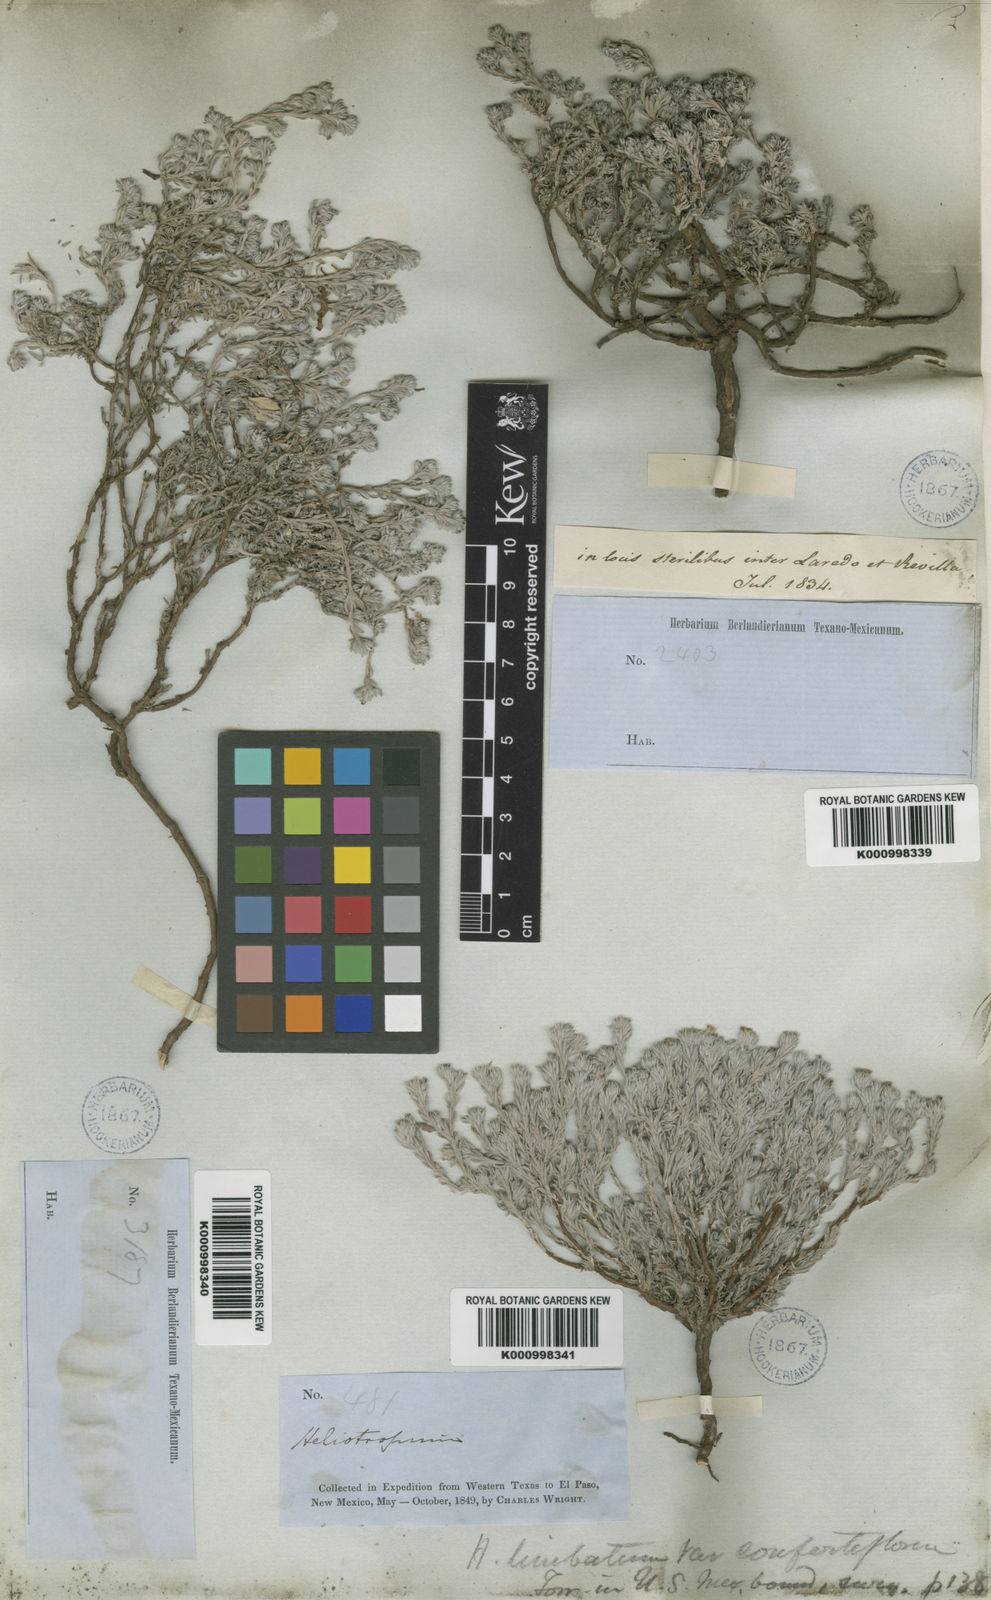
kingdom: Plantae
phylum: Tracheophyta
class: Magnoliopsida
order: Boraginales
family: Heliotropiaceae
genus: Heliotropium
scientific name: Heliotropium
